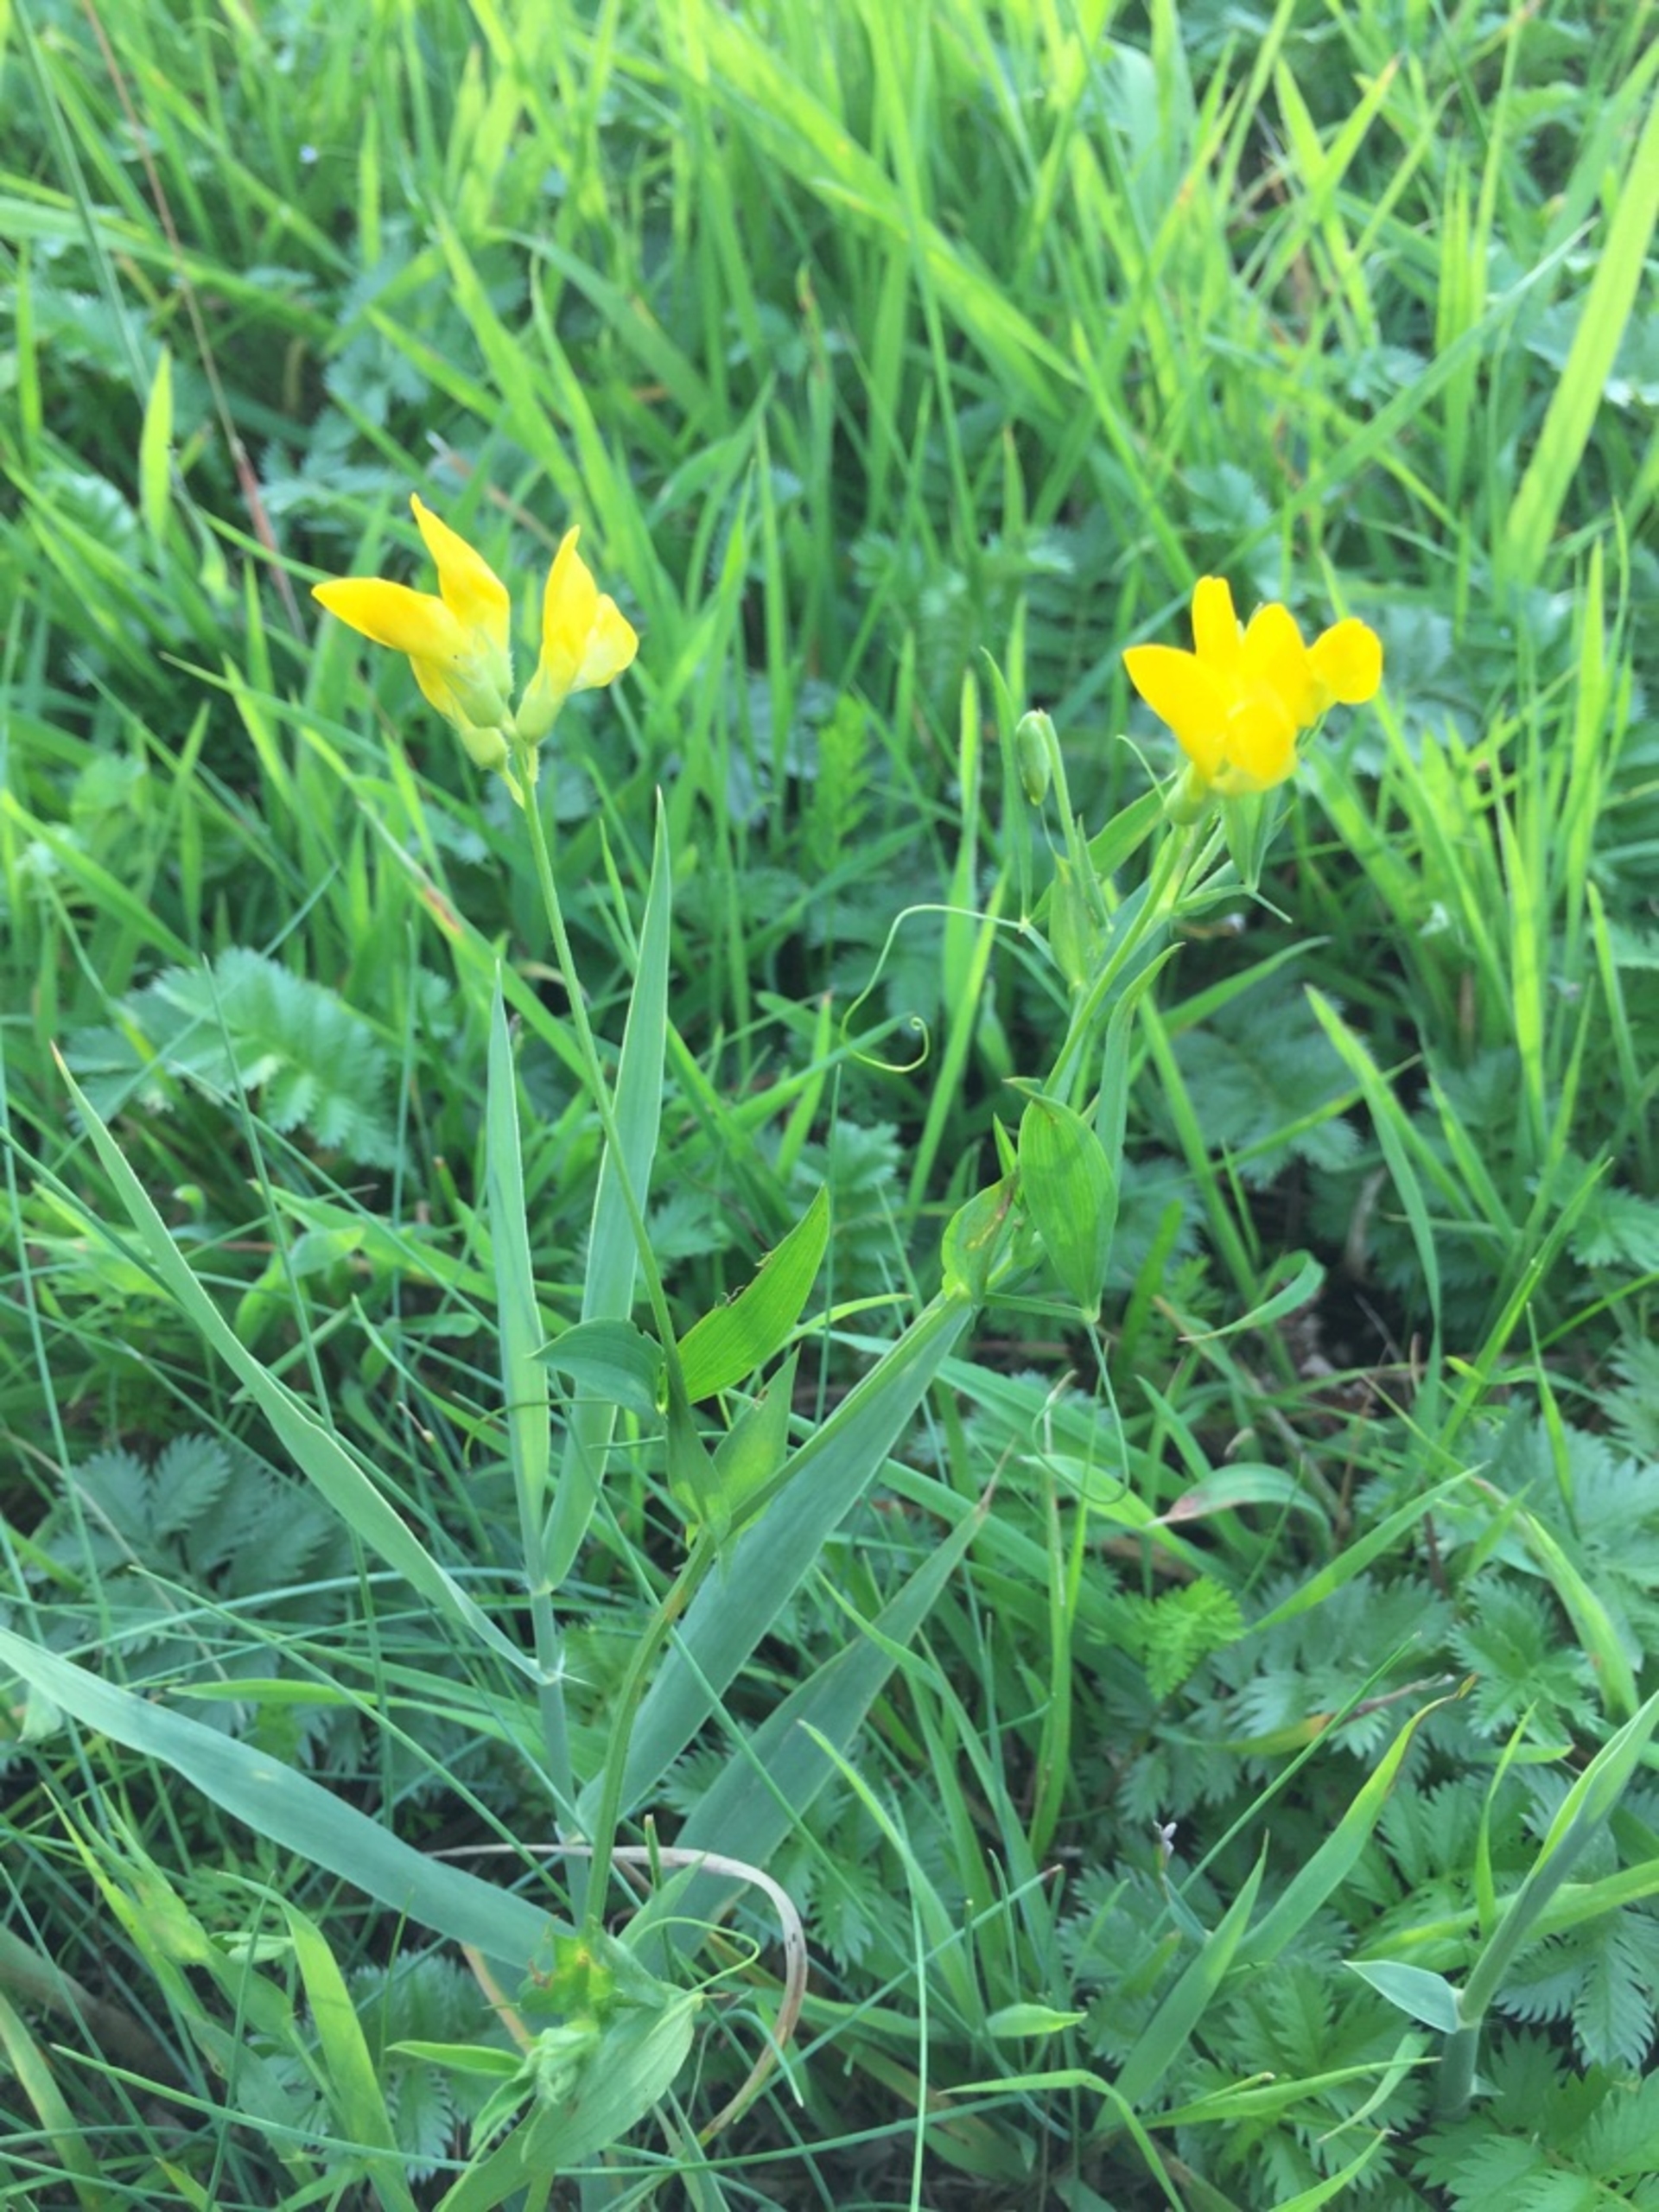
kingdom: Plantae
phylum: Tracheophyta
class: Magnoliopsida
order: Fabales
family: Fabaceae
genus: Lathyrus
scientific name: Lathyrus pratensis
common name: Gul fladbælg
